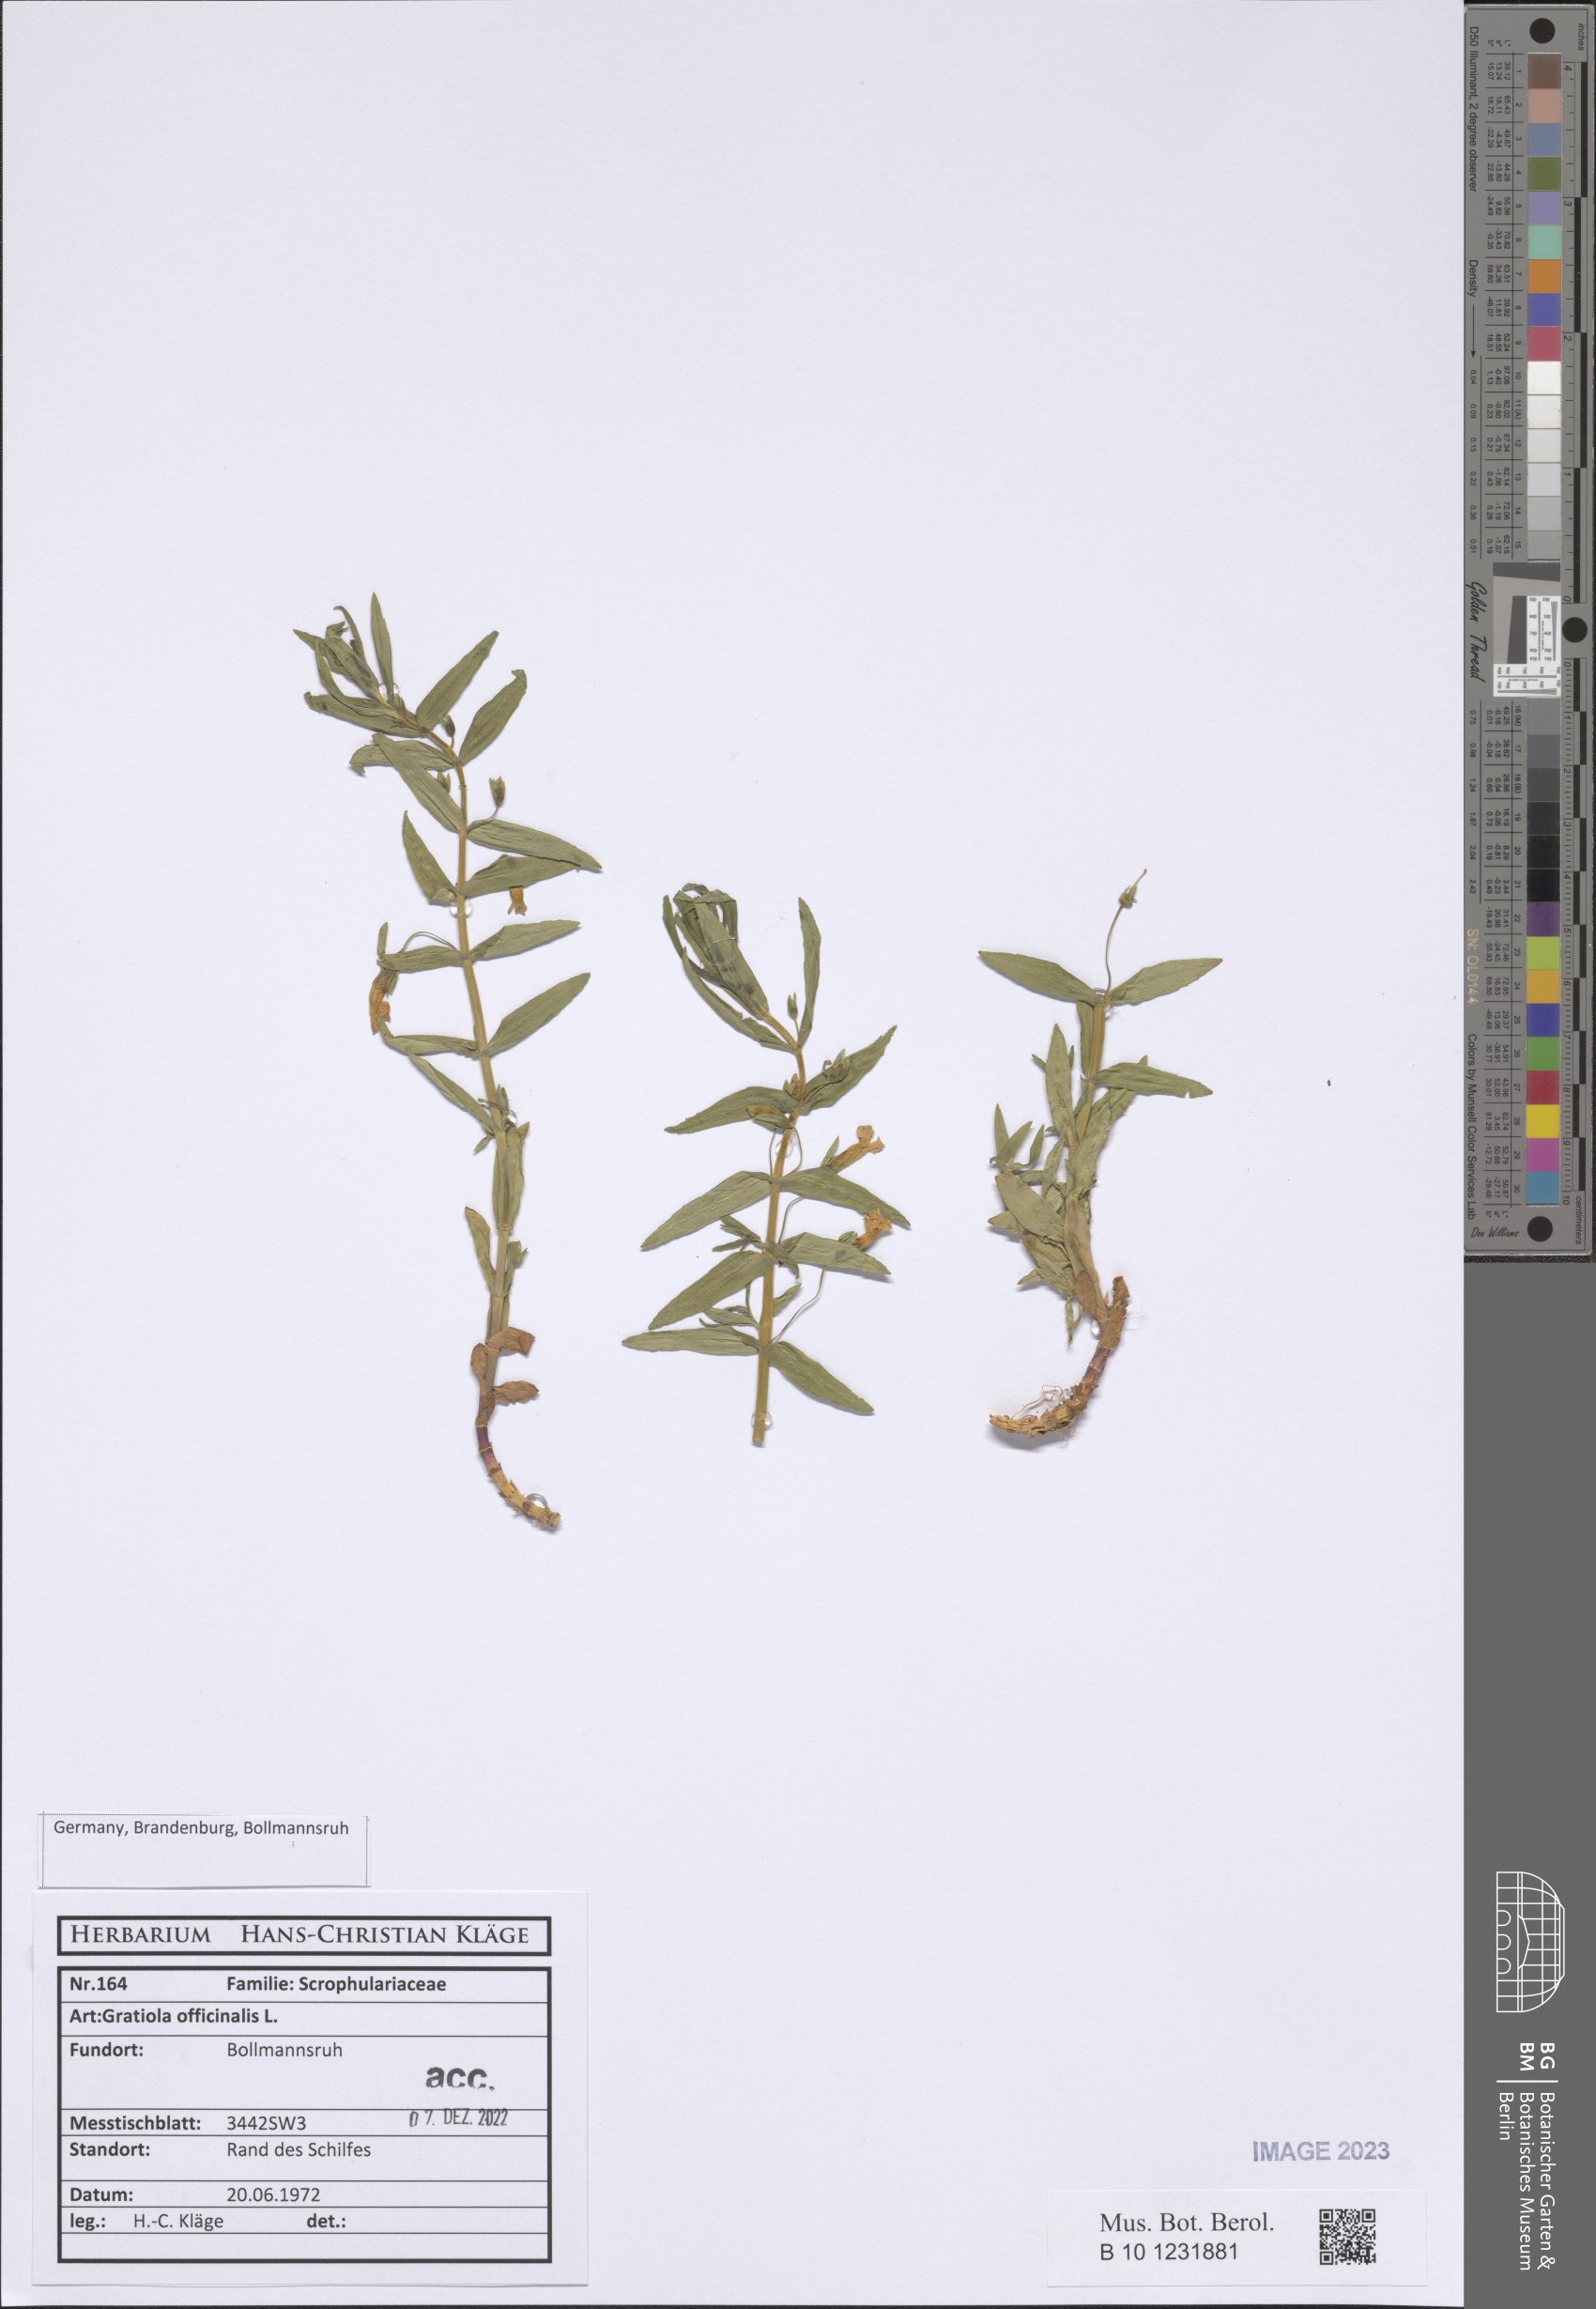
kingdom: Plantae
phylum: Tracheophyta
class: Magnoliopsida
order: Lamiales
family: Plantaginaceae
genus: Gratiola
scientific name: Gratiola officinalis
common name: Gratiola
